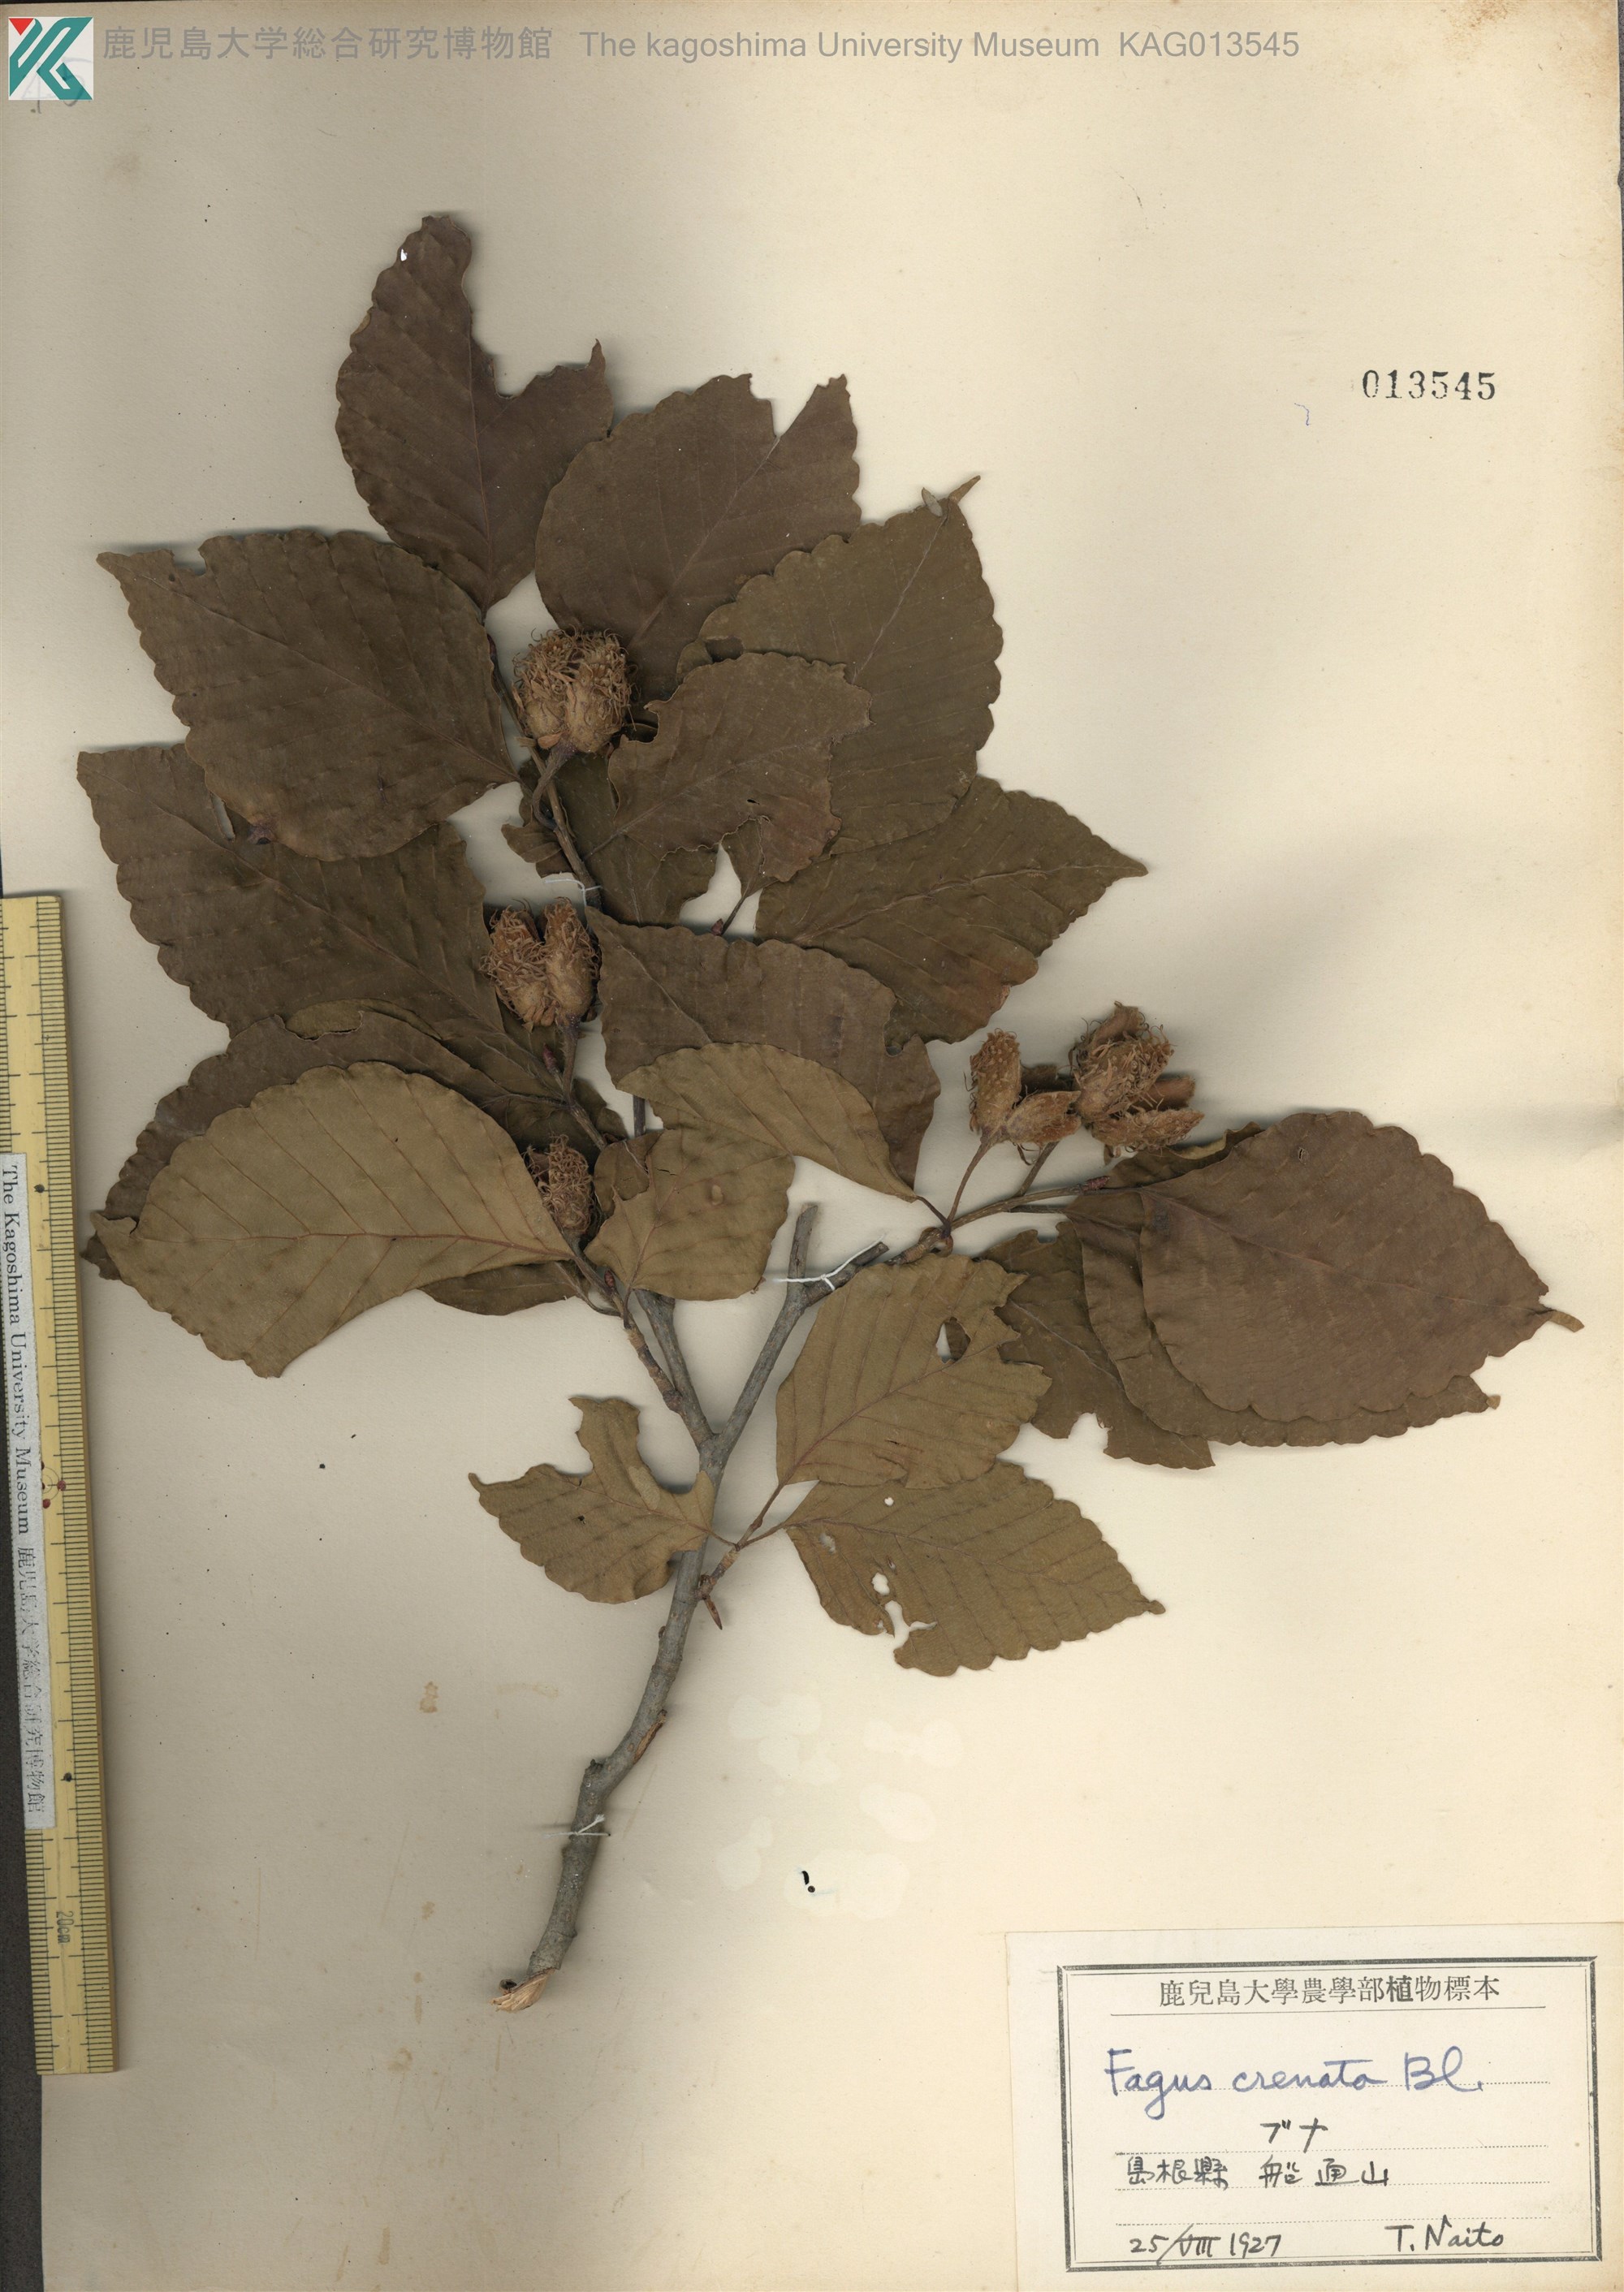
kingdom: Plantae
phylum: Tracheophyta
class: Magnoliopsida
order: Fagales
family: Fagaceae
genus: Fagus
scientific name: Fagus crenata
